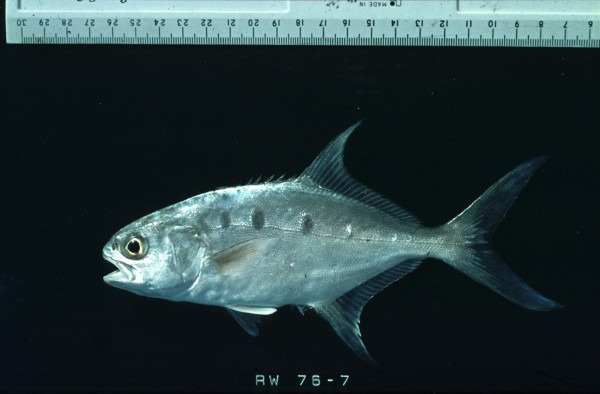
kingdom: Animalia
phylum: Chordata
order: Perciformes
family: Carangidae
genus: Trachinotus
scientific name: Trachinotus botla
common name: Common dart
